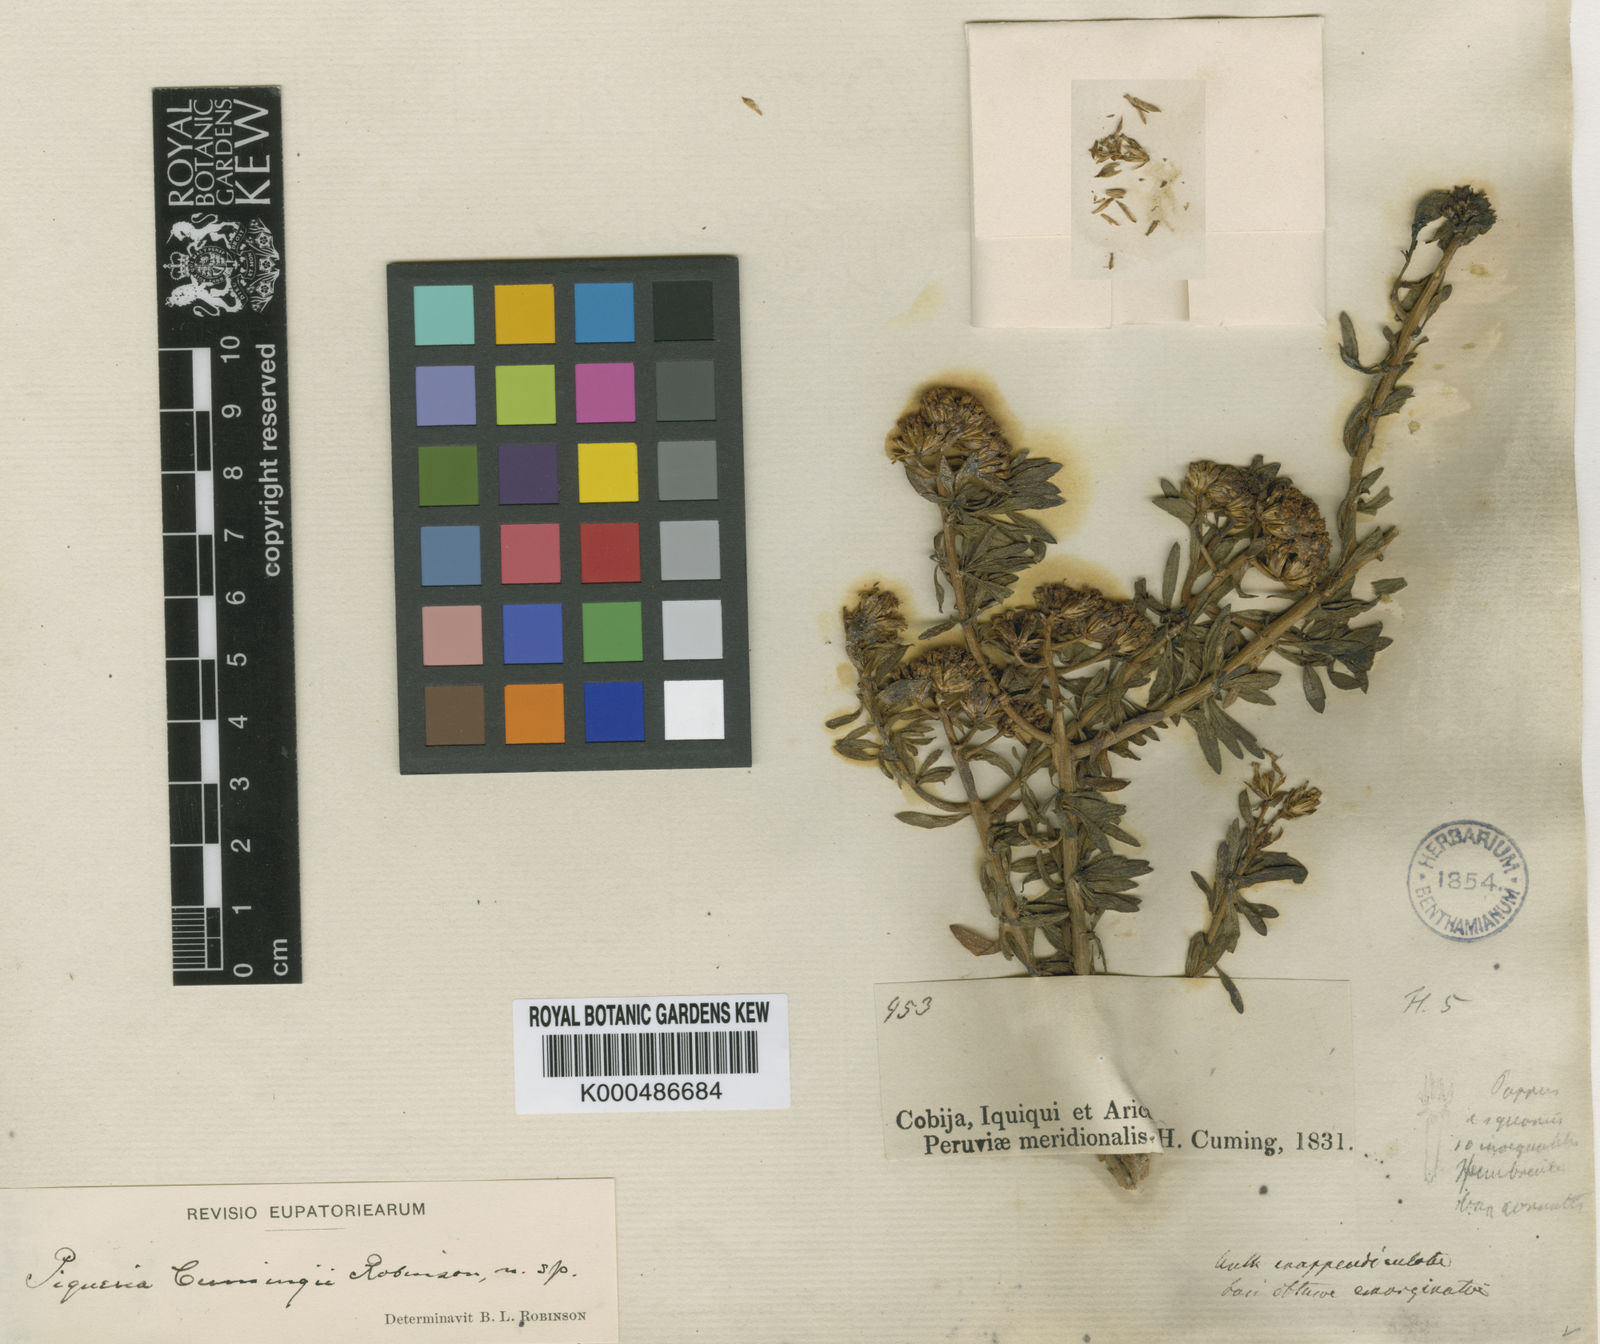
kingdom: Plantae
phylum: Tracheophyta
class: Magnoliopsida
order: Asterales
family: Asteraceae
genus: Ophryosporus
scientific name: Ophryosporus anomalus
